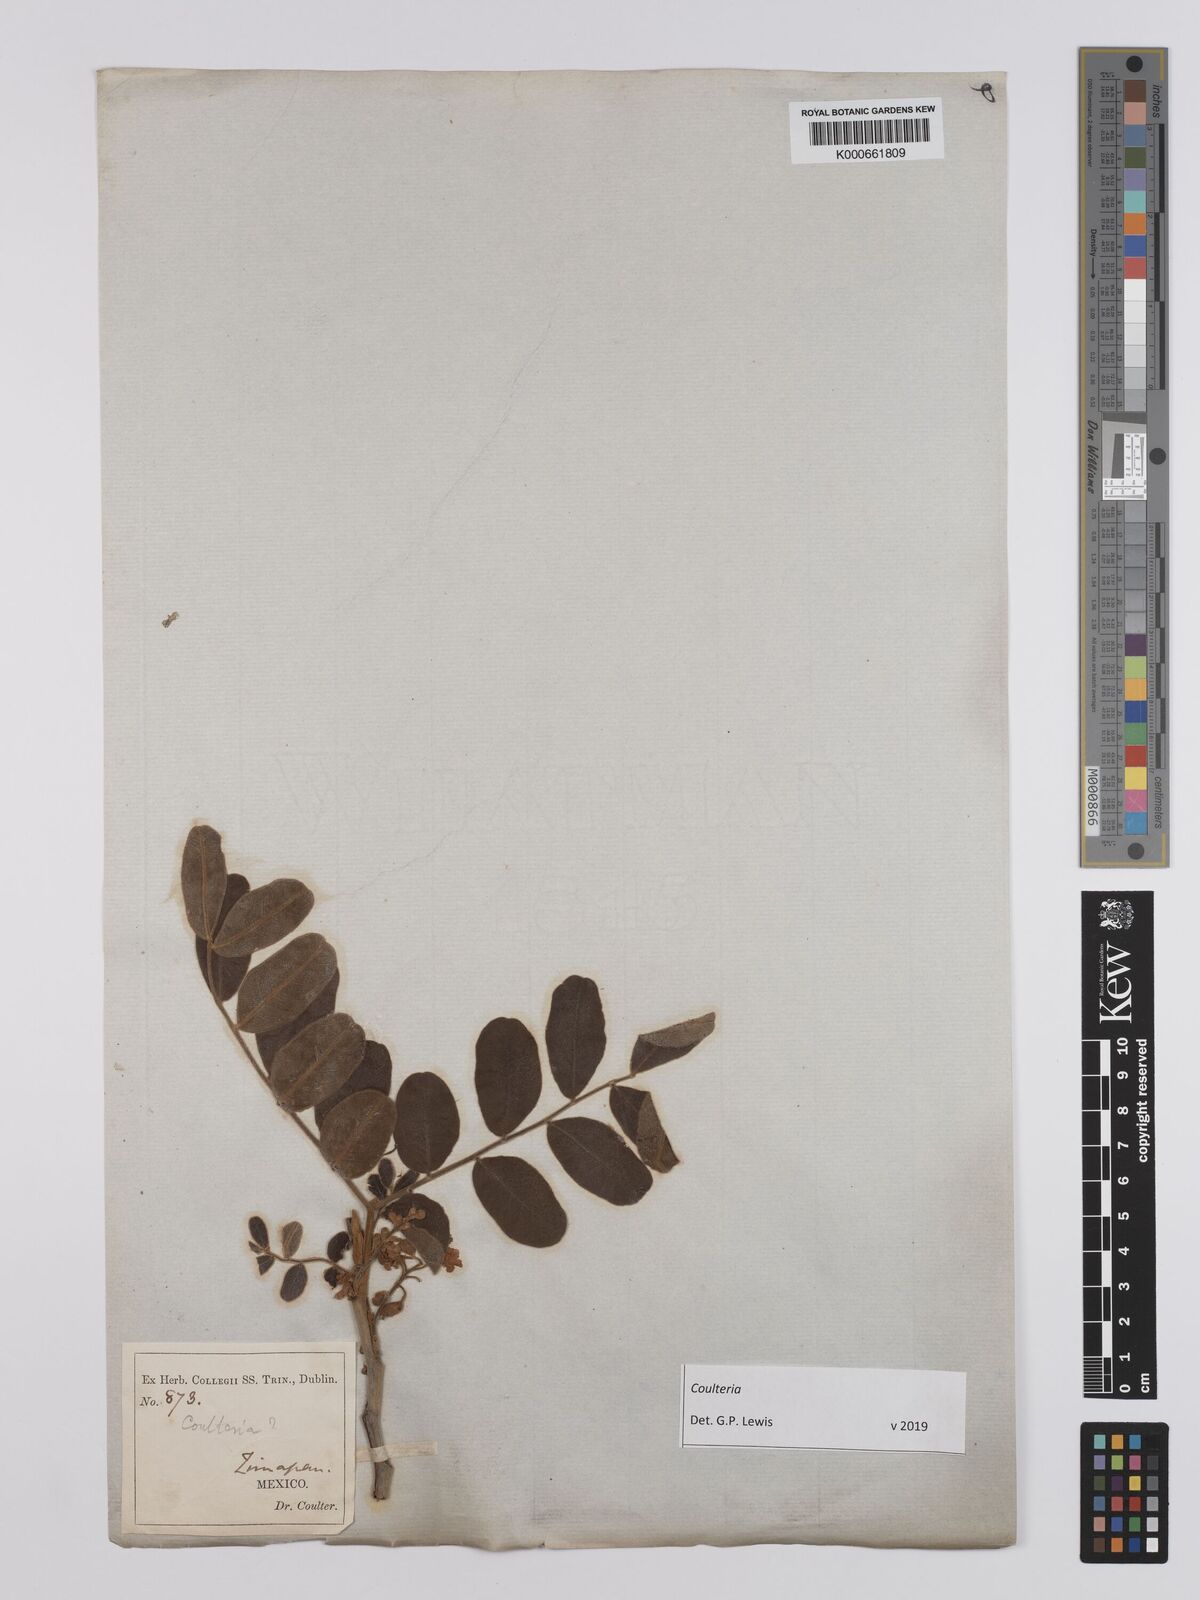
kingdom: Plantae
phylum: Tracheophyta
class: Magnoliopsida
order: Fabales
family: Fabaceae
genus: Coulteria
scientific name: Coulteria
